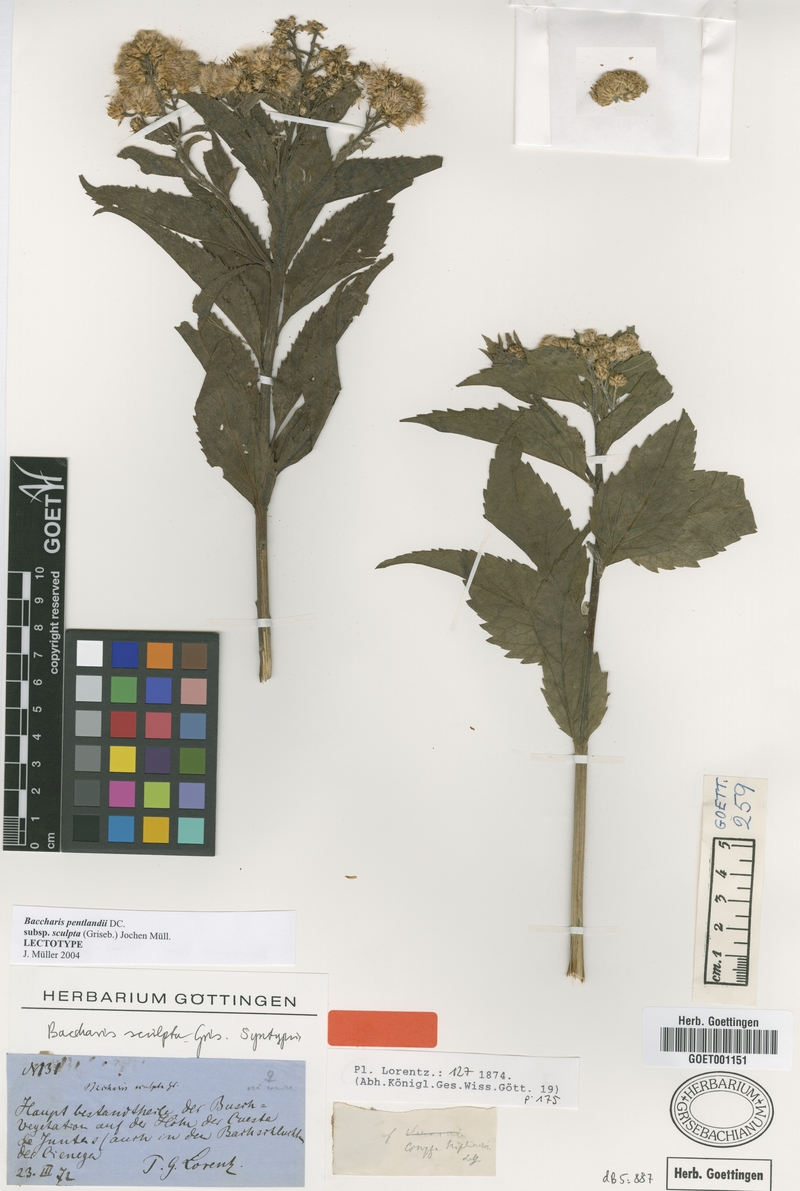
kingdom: Plantae
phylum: Tracheophyta
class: Magnoliopsida
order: Asterales
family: Asteraceae
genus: Baccharis
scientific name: Baccharis pentlandii
